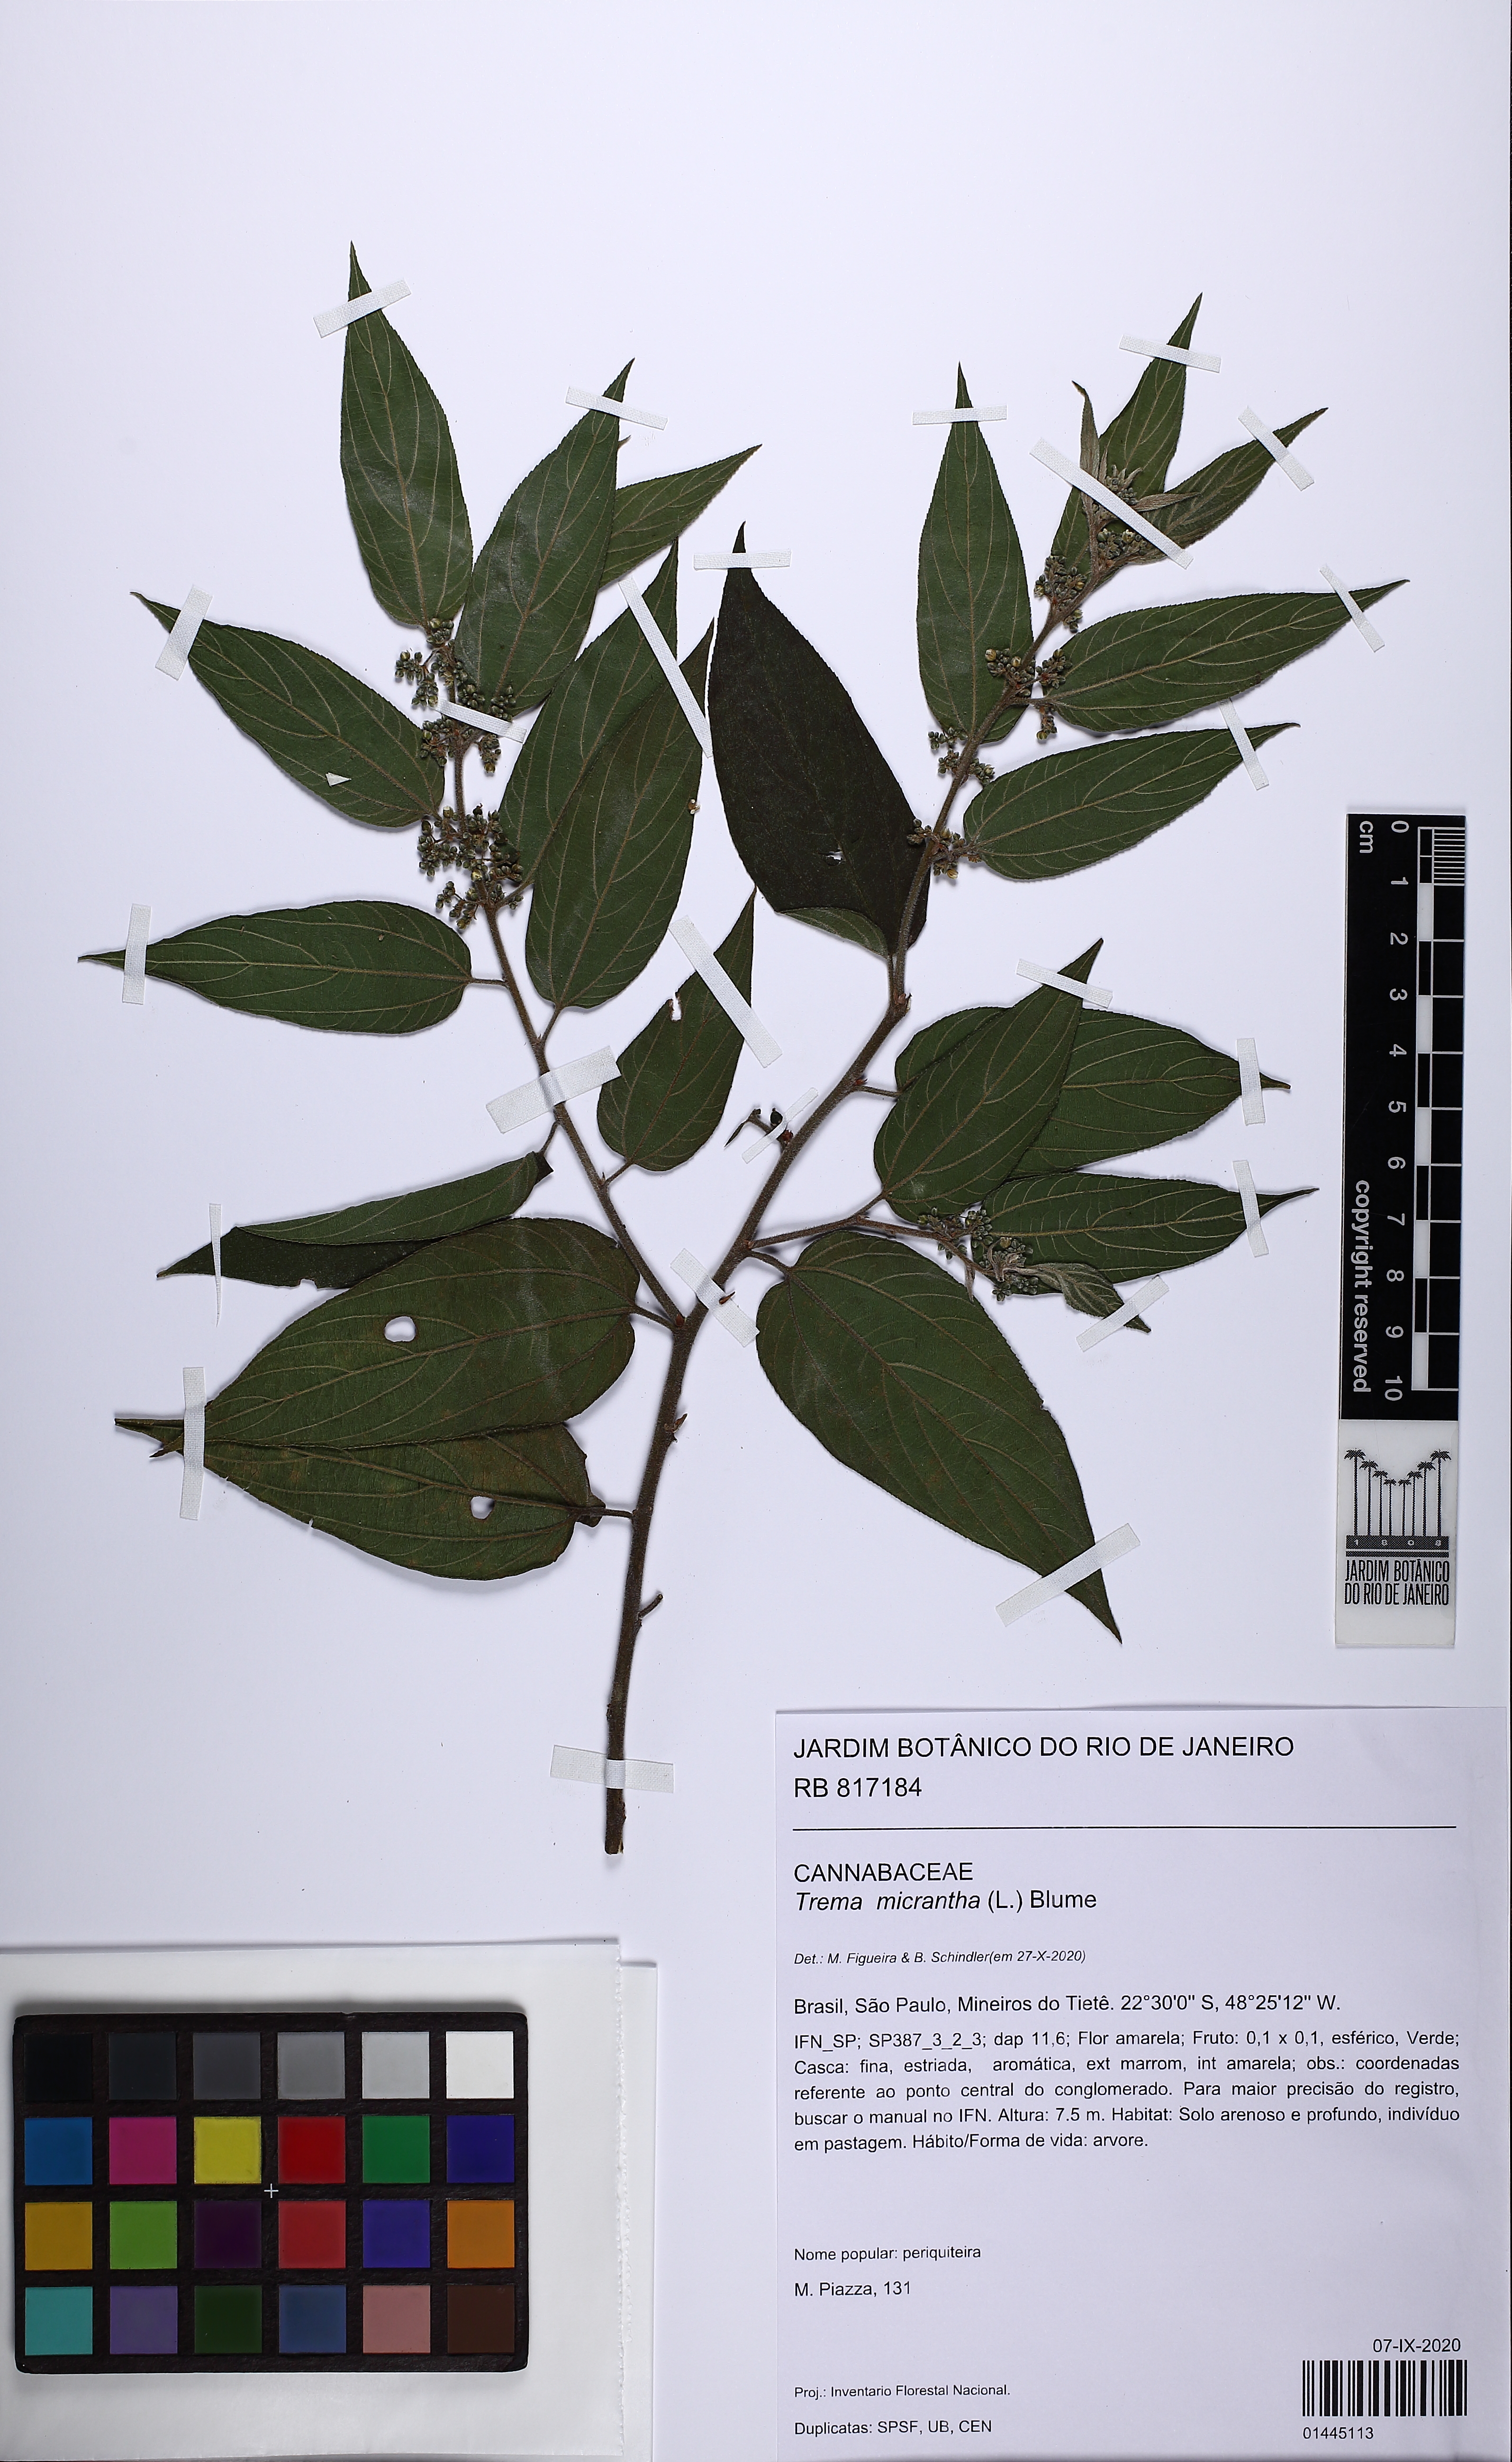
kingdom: Plantae
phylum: Tracheophyta
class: Magnoliopsida
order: Rosales
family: Cannabaceae
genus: Trema
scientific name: Trema micranthum
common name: Jamaican nettletree
